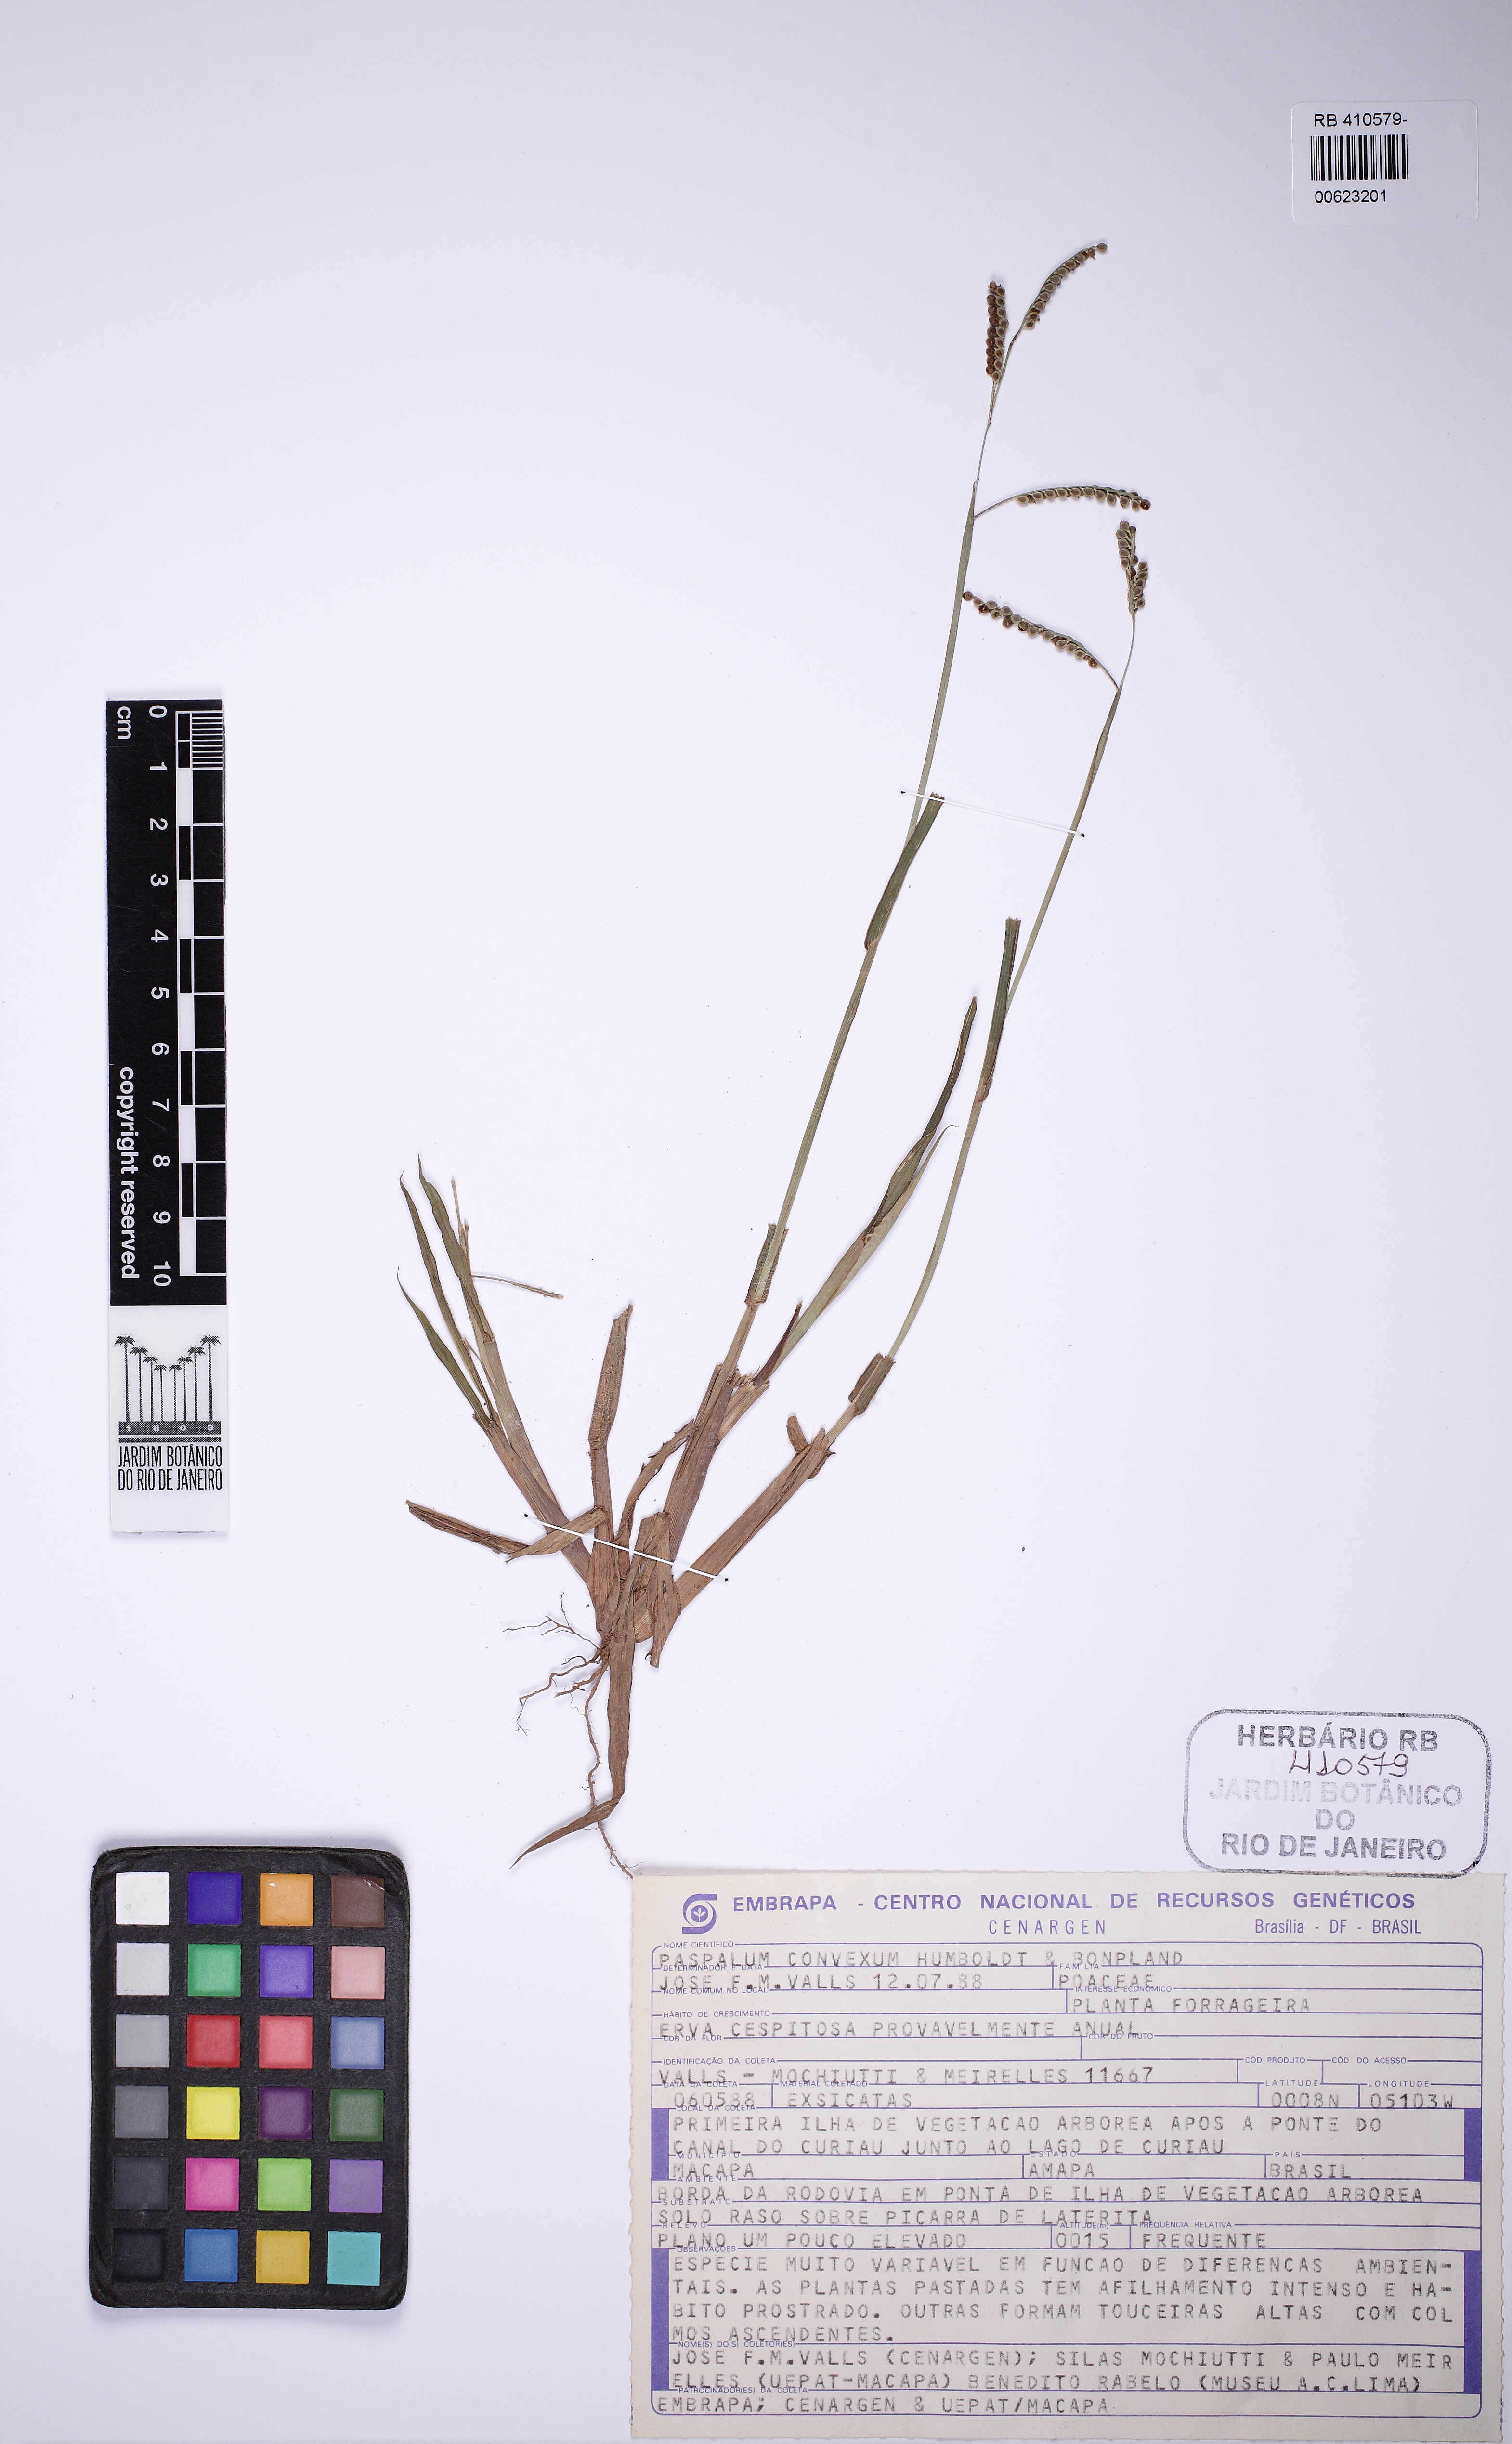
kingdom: Plantae
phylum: Tracheophyta
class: Liliopsida
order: Poales
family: Poaceae
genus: Paspalum
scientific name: Paspalum convexum
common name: Latin american crowngrass
